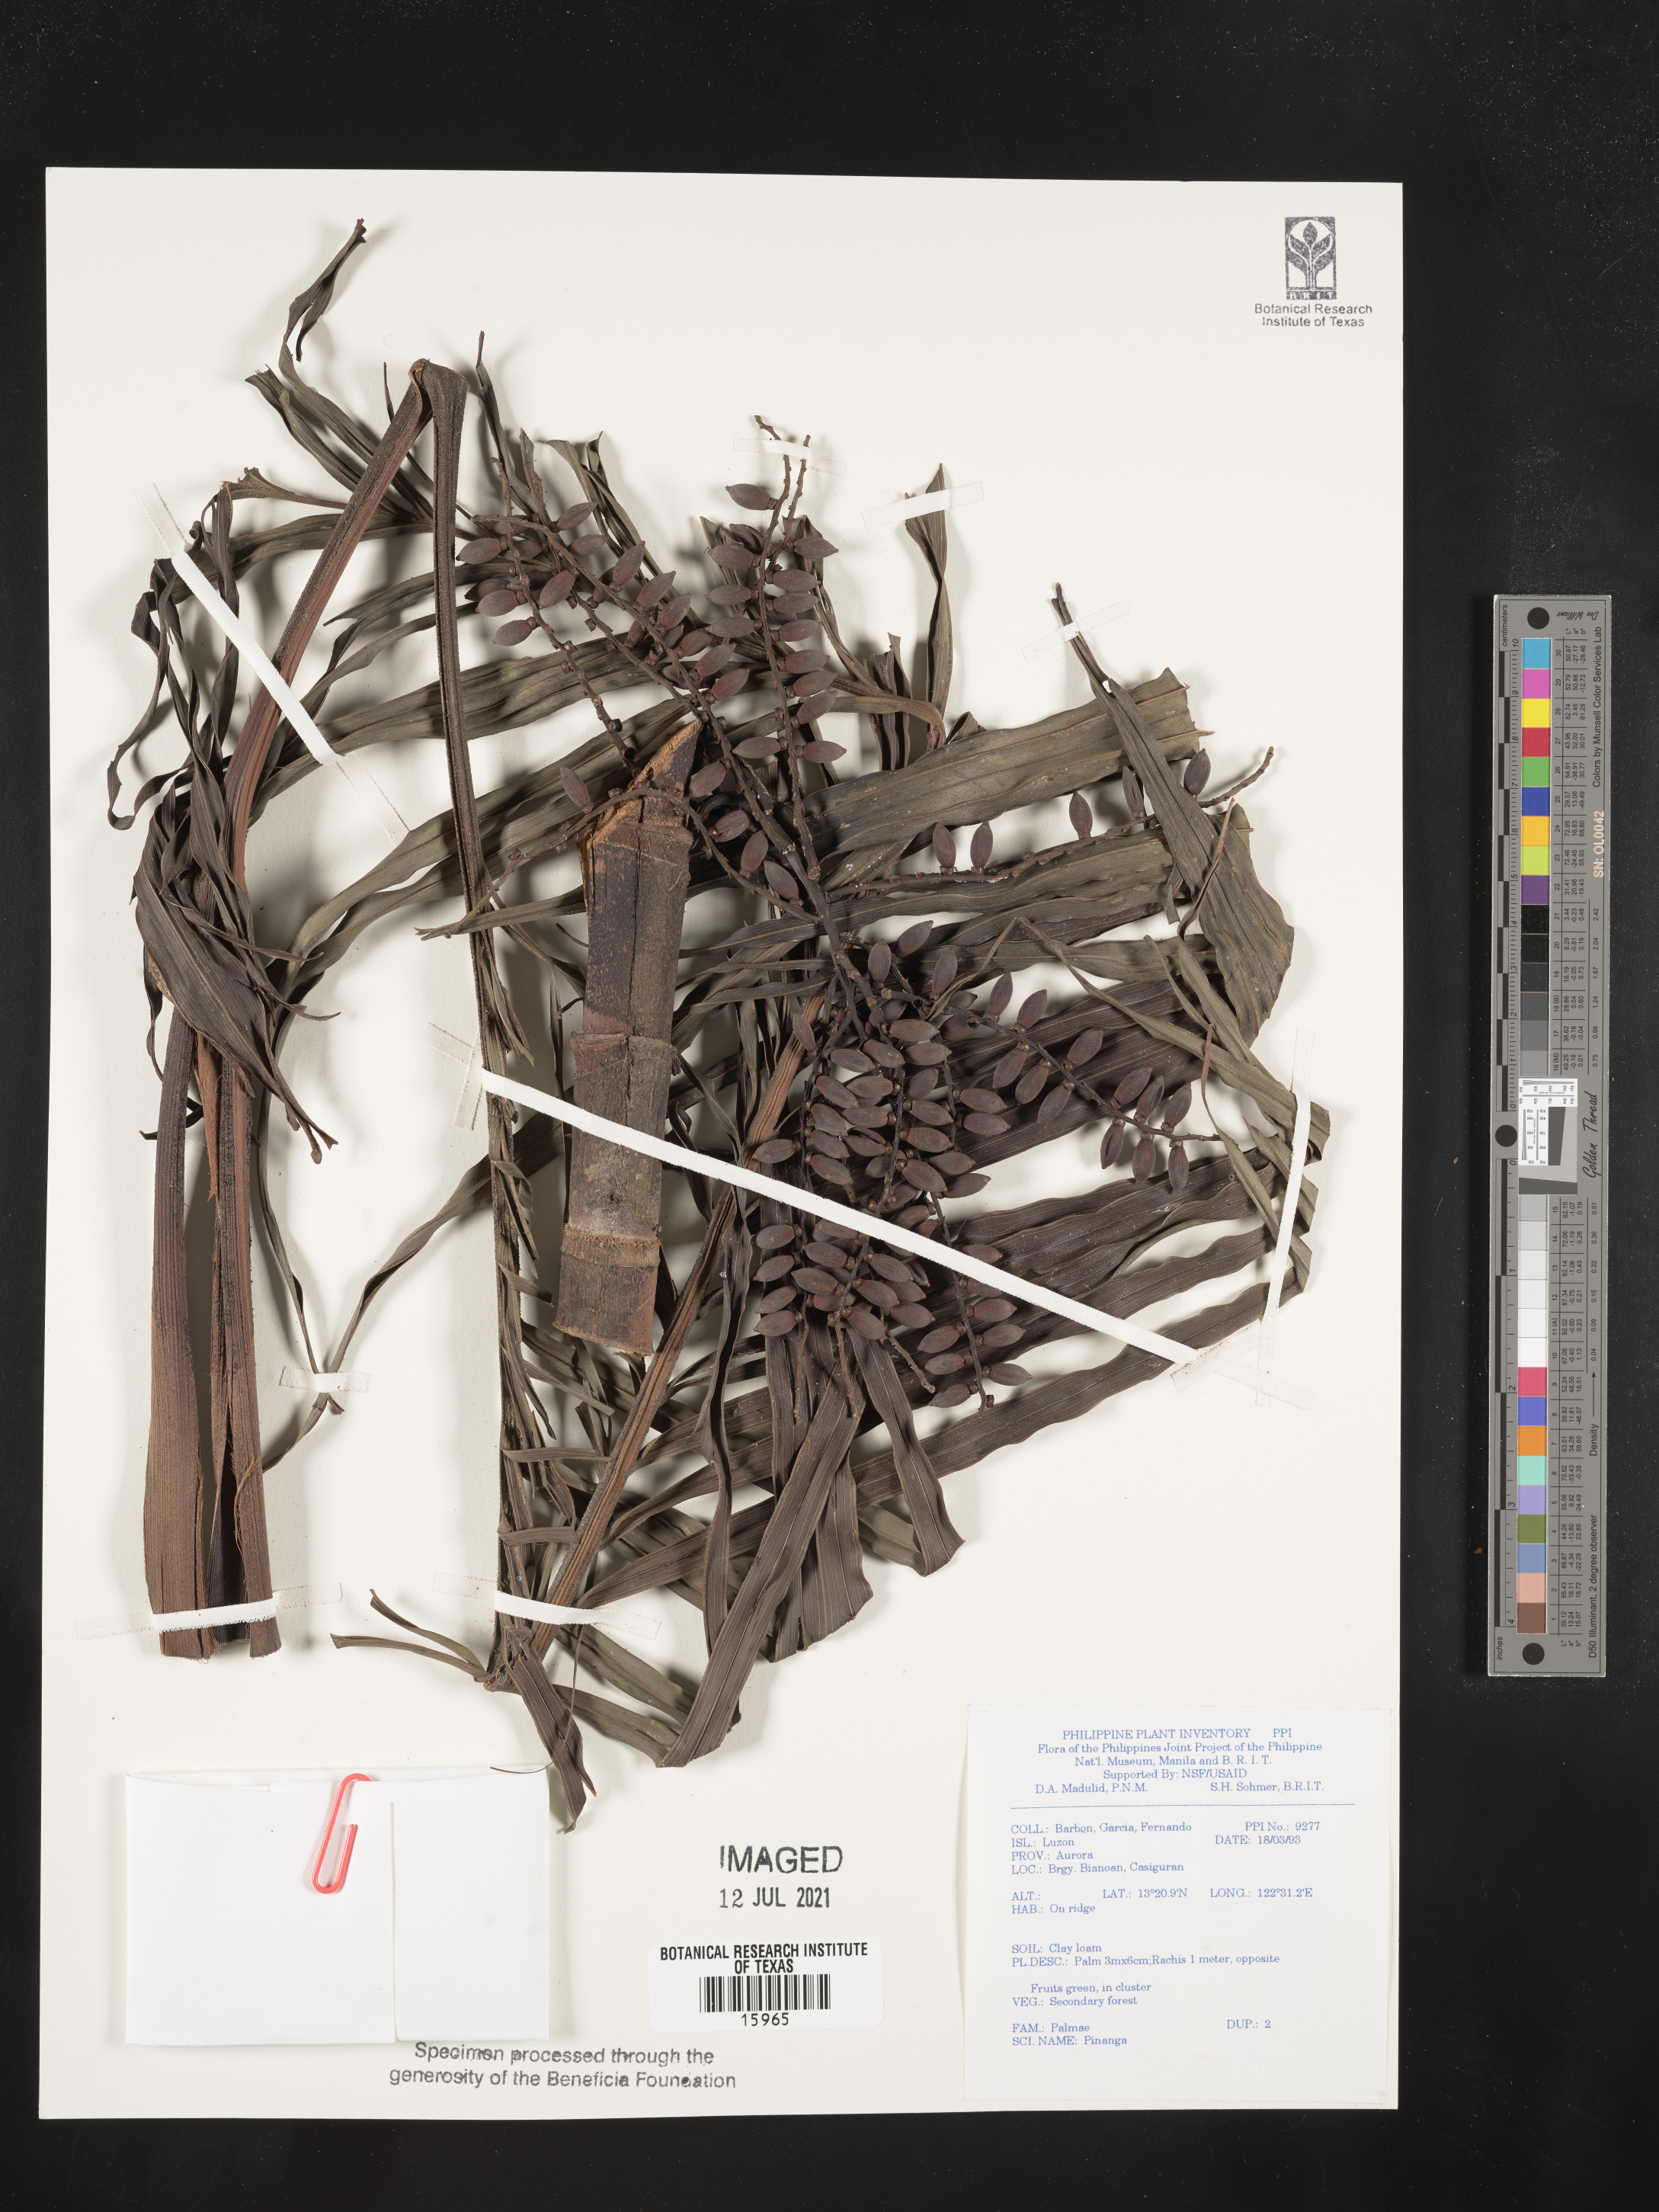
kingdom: Plantae
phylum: Tracheophyta
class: Liliopsida
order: Arecales
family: Arecaceae
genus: Pinanga
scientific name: Pinanga
